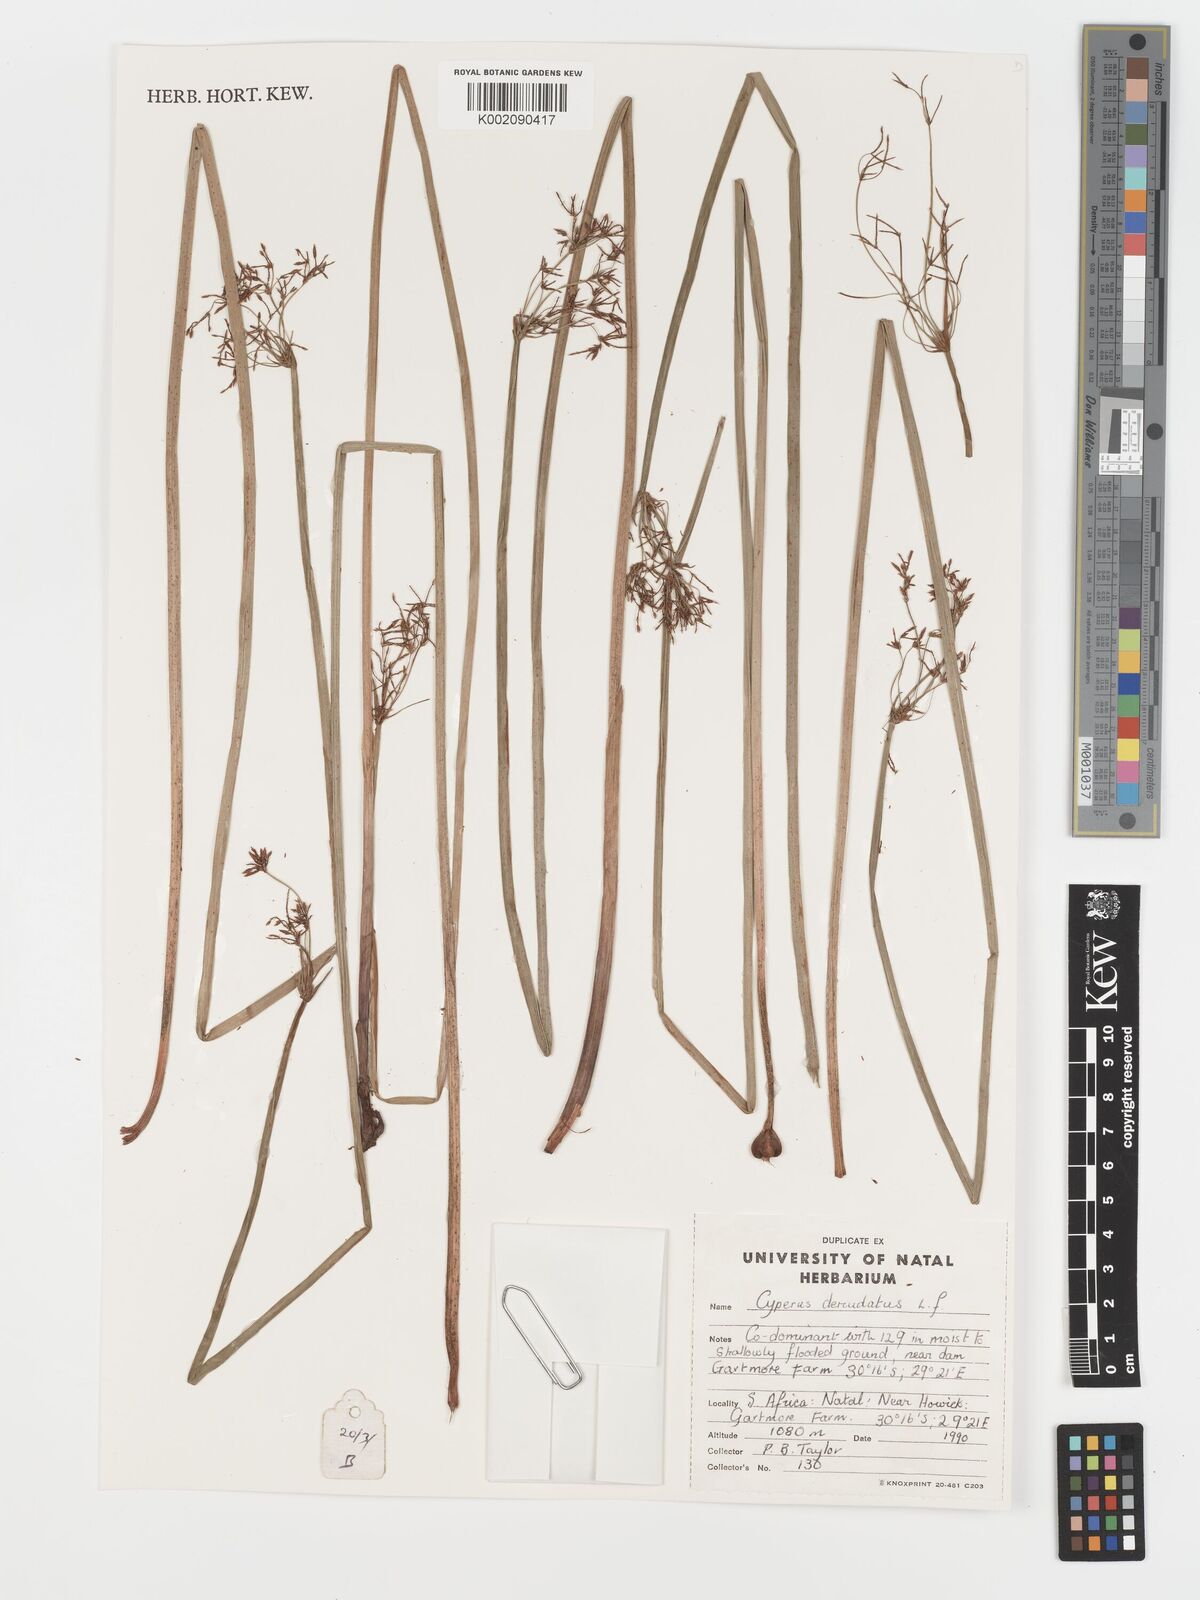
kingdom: Plantae
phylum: Tracheophyta
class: Liliopsida
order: Poales
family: Cyperaceae
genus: Cyperus
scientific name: Cyperus denudatus
